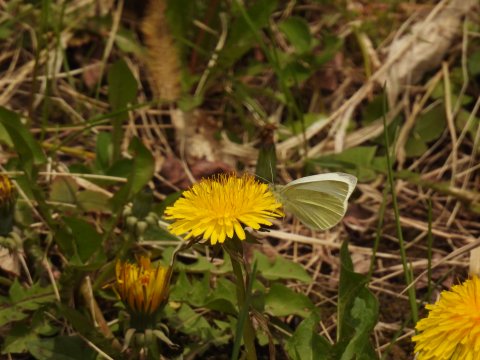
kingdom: Animalia
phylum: Arthropoda
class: Insecta
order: Lepidoptera
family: Pieridae
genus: Pieris
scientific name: Pieris rapae
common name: Cabbage White
